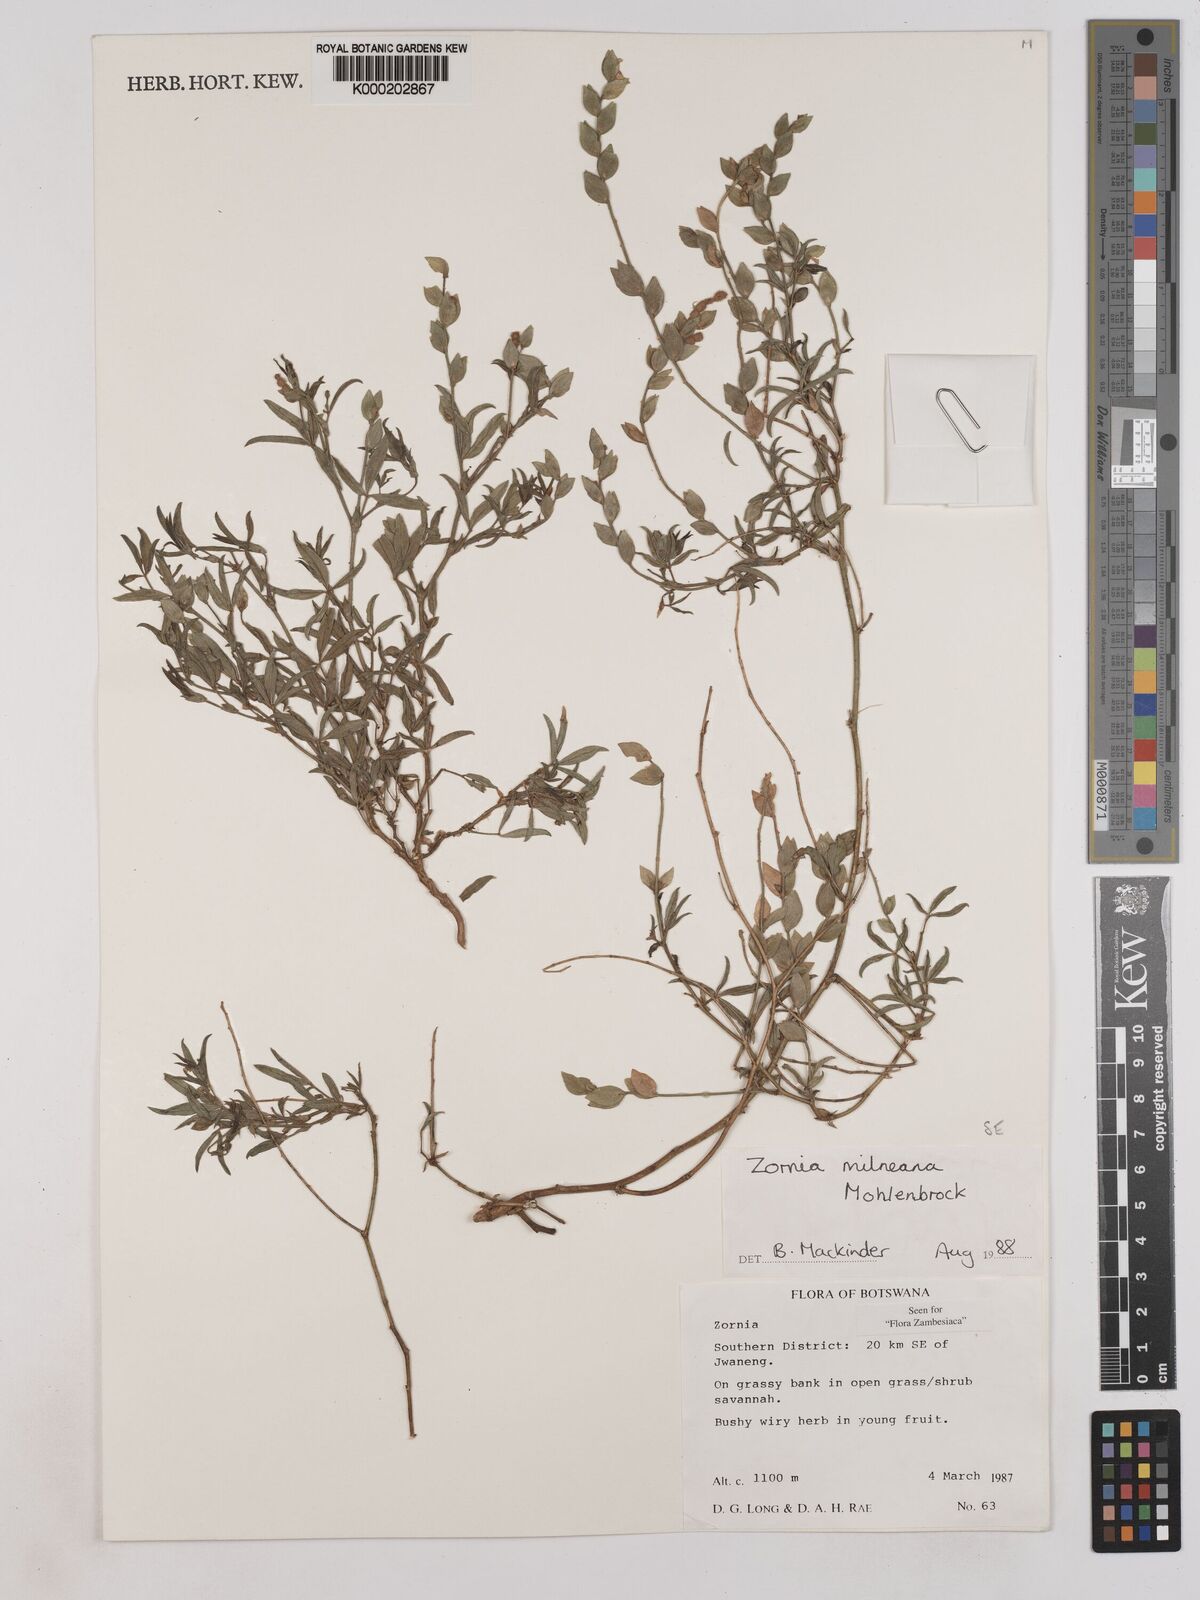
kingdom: Plantae
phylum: Tracheophyta
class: Magnoliopsida
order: Fabales
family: Fabaceae
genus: Zornia
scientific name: Zornia milneana
